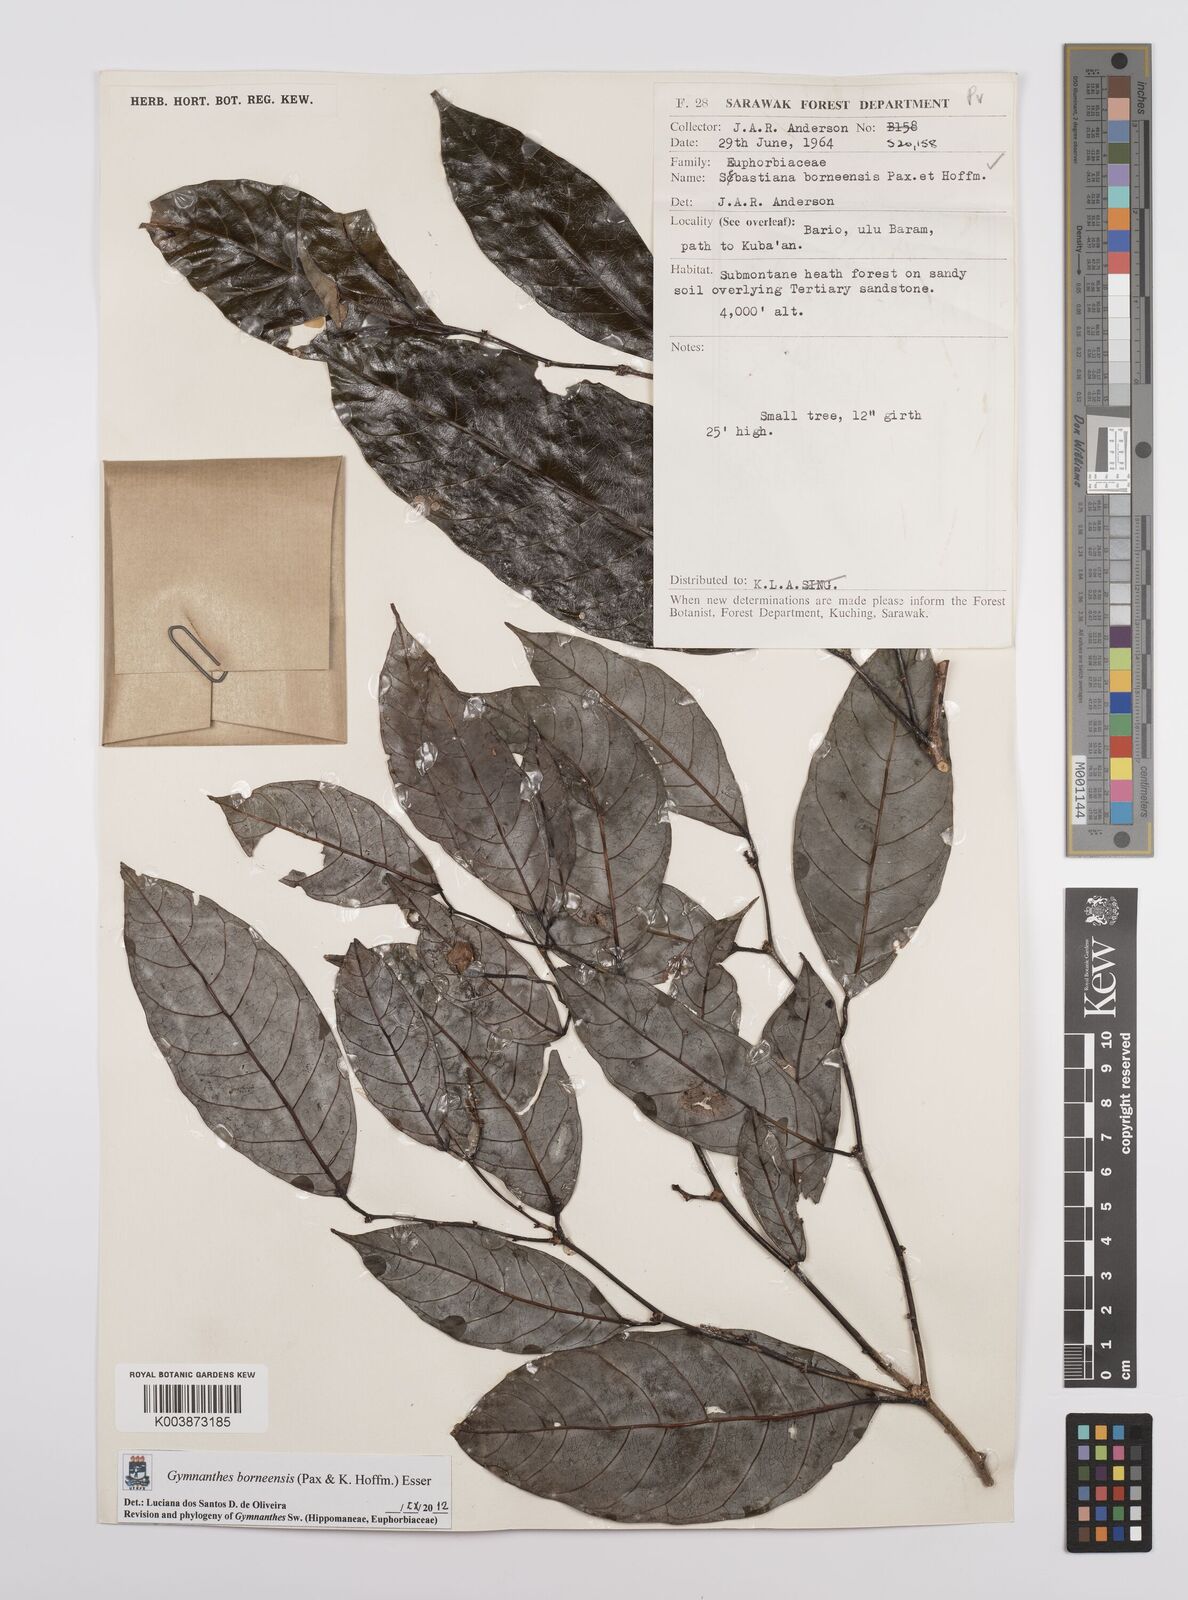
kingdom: Plantae
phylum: Tracheophyta
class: Magnoliopsida
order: Malpighiales
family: Euphorbiaceae
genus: Gymnanthes
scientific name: Gymnanthes borneensis
